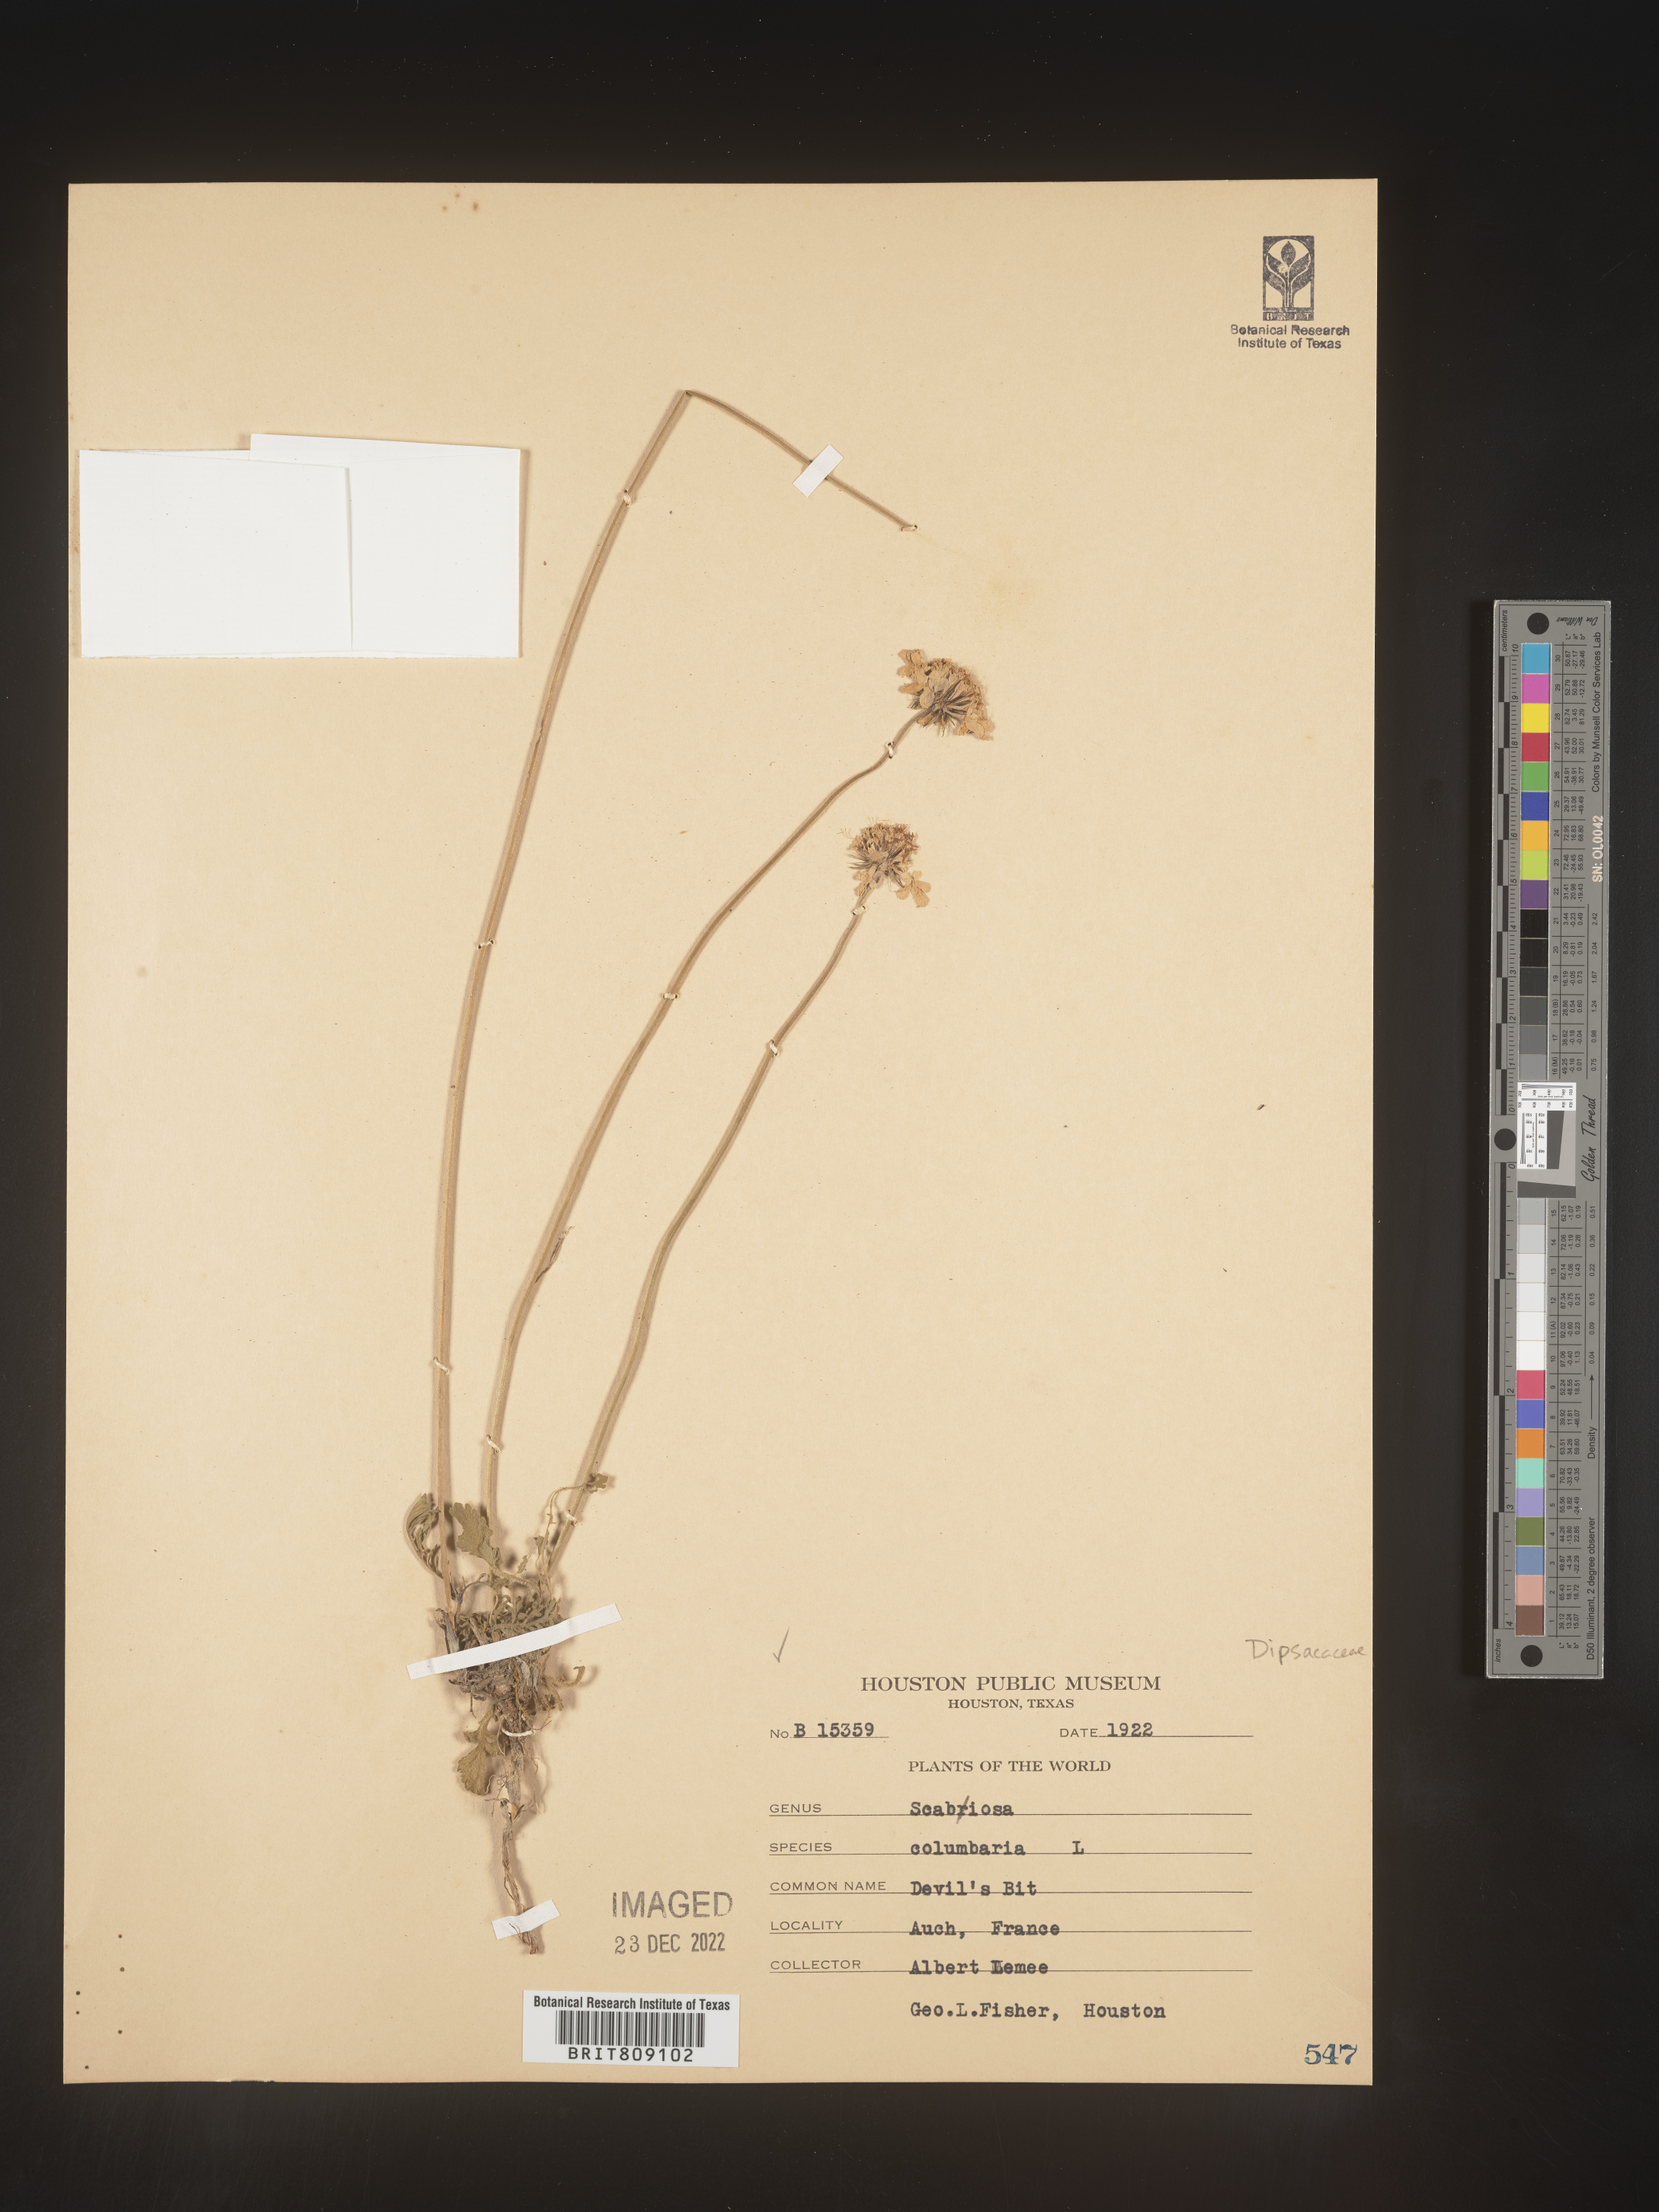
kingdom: Plantae
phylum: Tracheophyta
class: Magnoliopsida
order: Dipsacales
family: Caprifoliaceae
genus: Scabiosa
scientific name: Scabiosa
